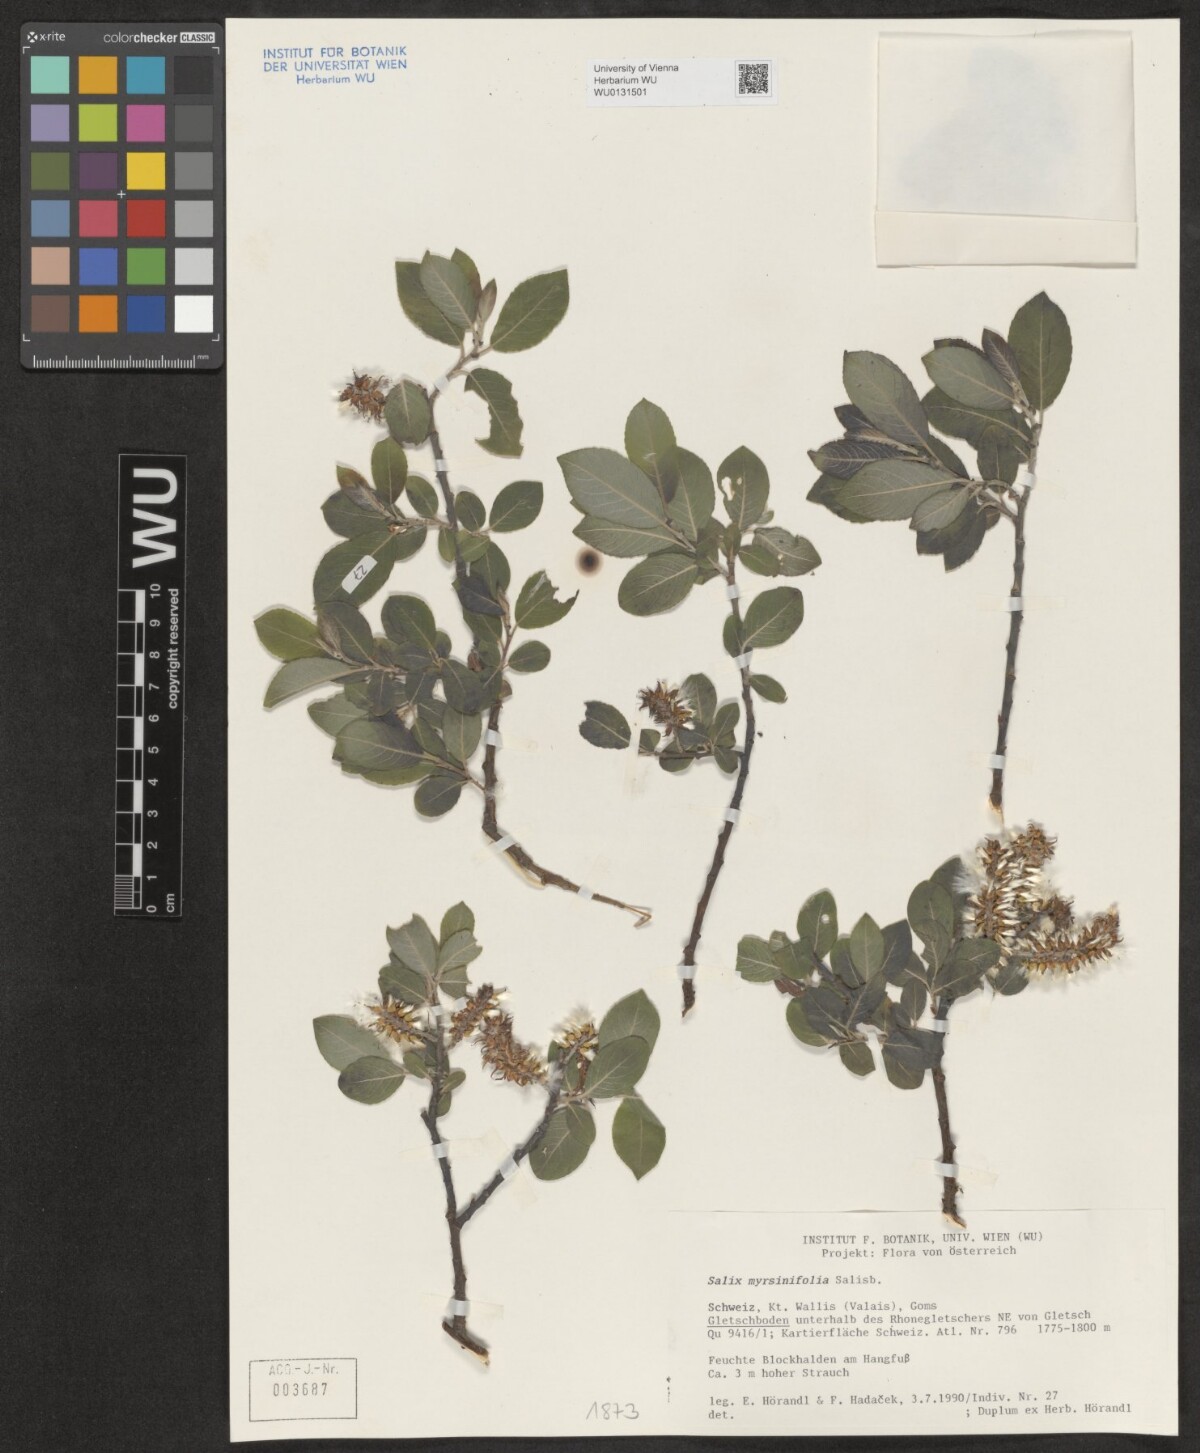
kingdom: Plantae
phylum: Tracheophyta
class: Magnoliopsida
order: Malpighiales
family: Salicaceae
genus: Salix
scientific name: Salix myrsinifolia
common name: Dark-leaved willow
